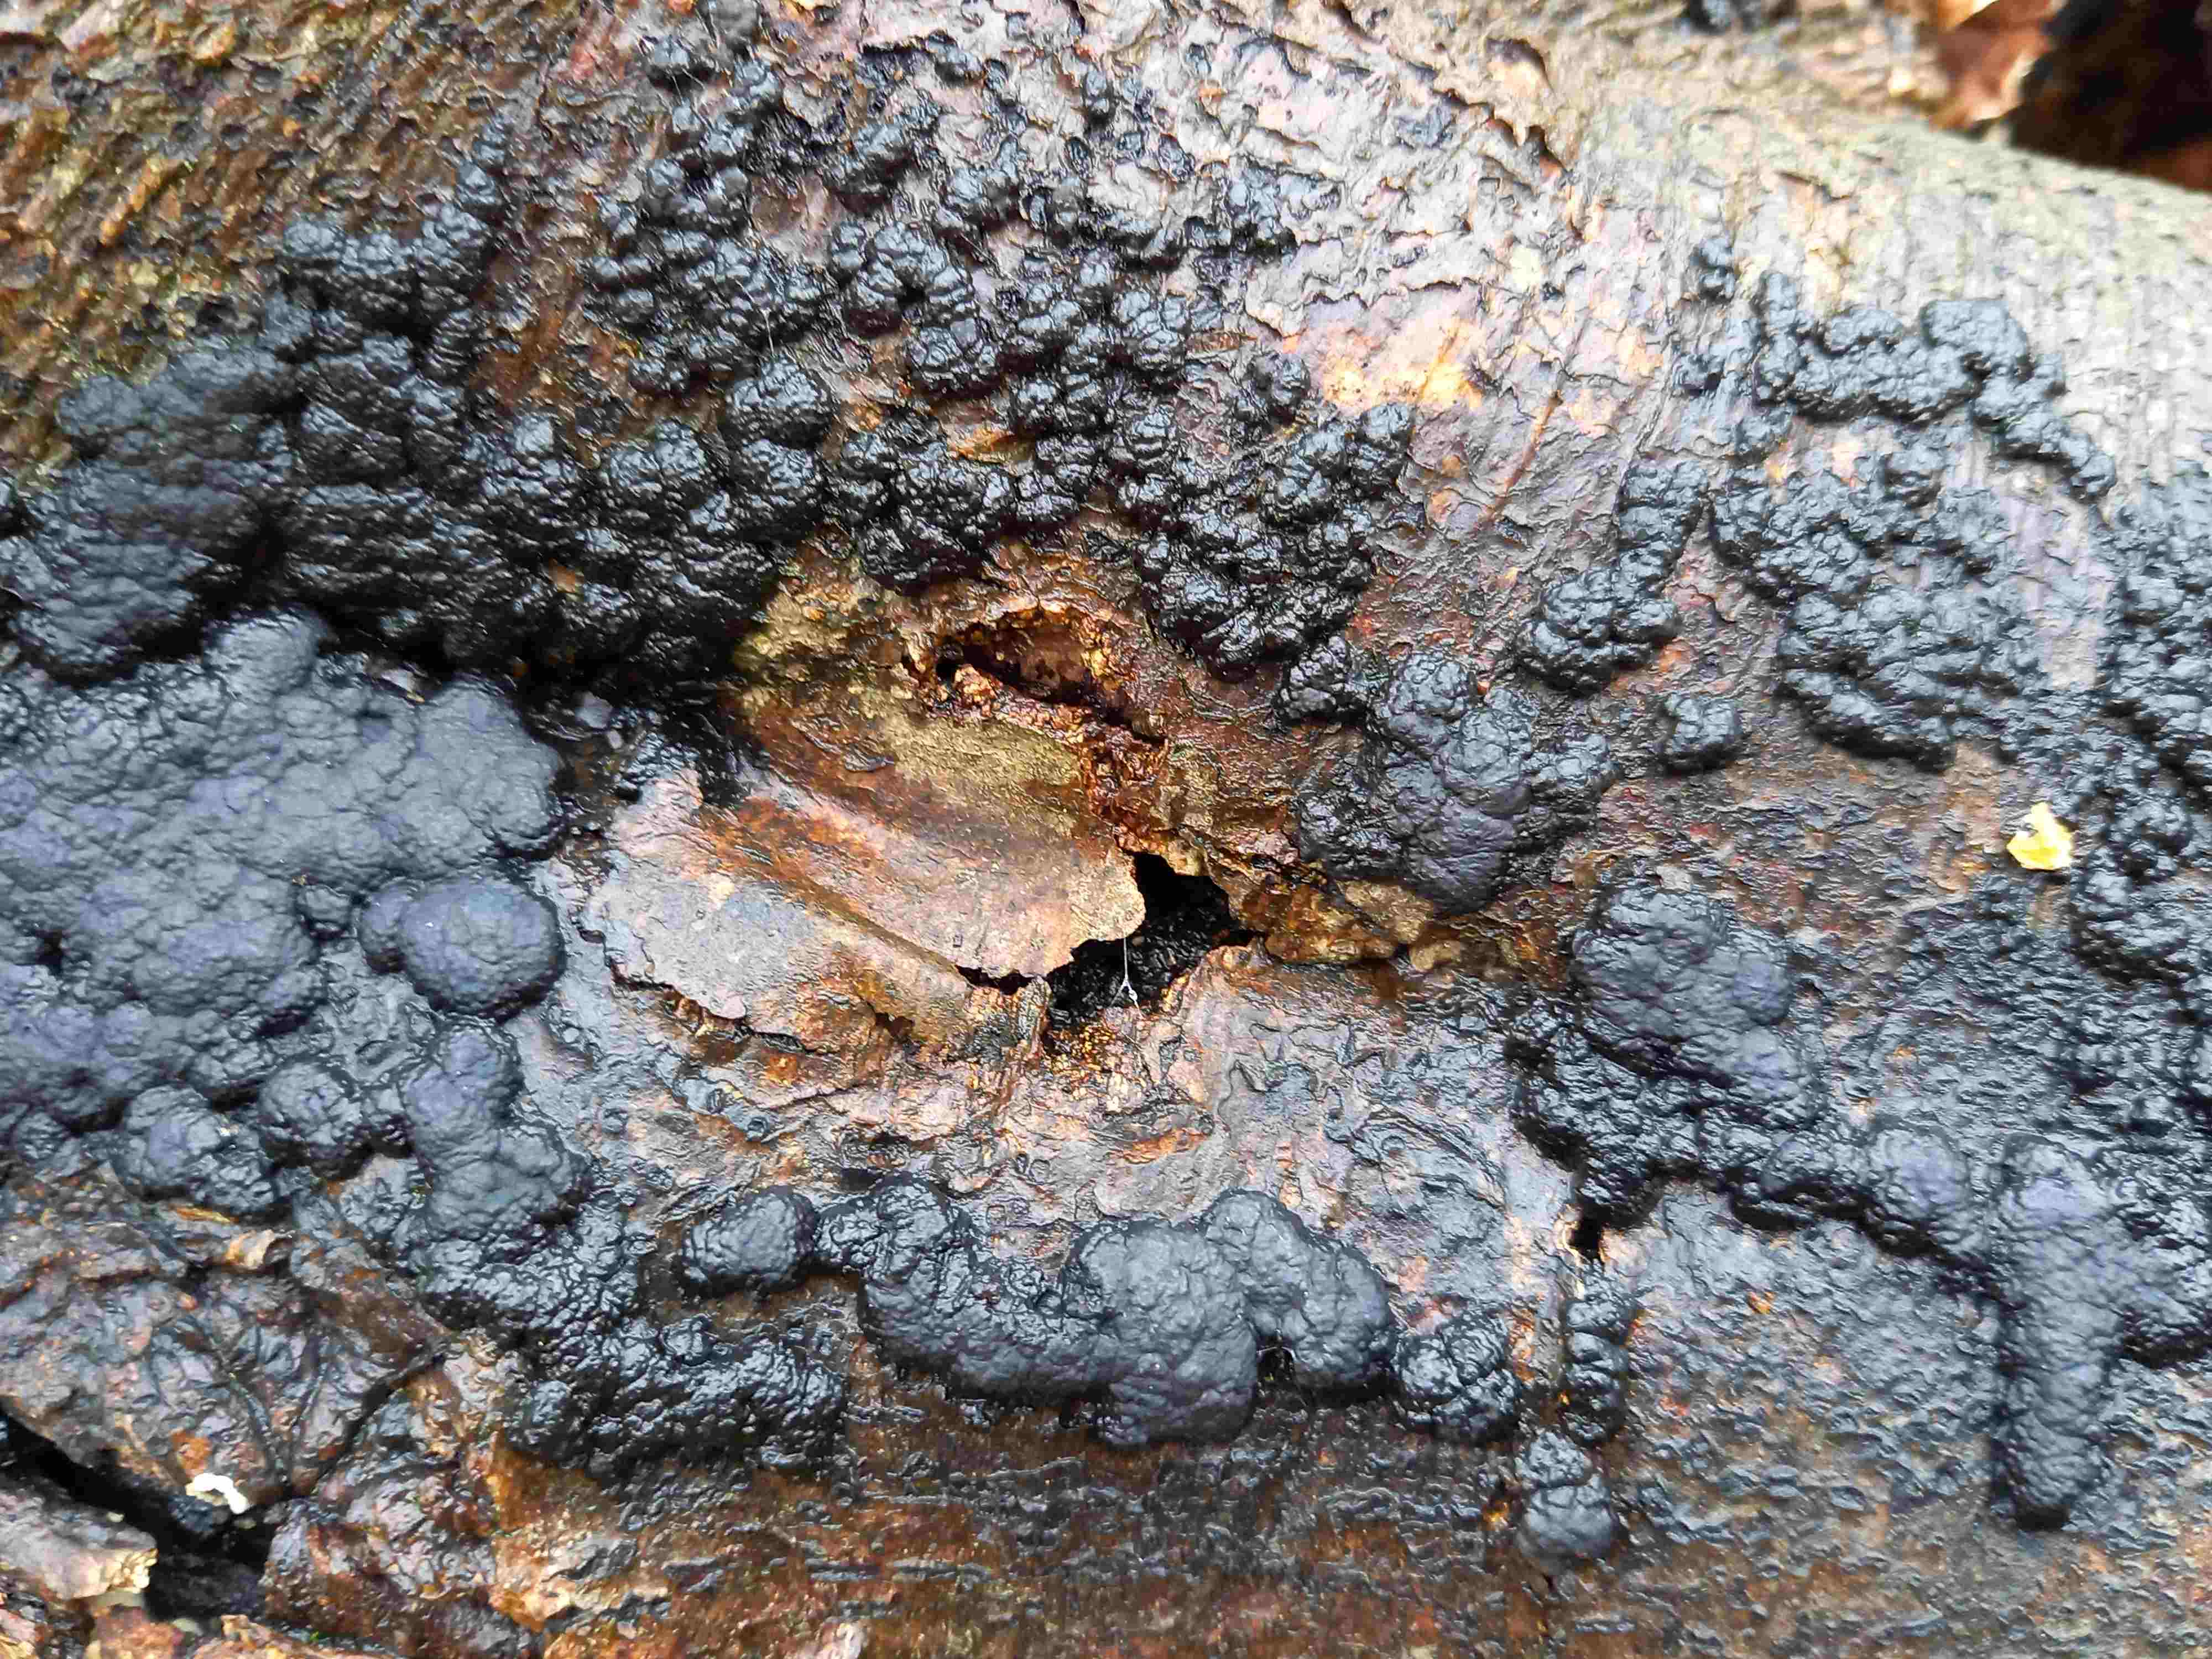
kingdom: Fungi
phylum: Ascomycota
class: Sordariomycetes
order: Xylariales
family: Hypoxylaceae
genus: Jackrogersella
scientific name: Jackrogersella cohaerens
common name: sammenflydende kulbær
